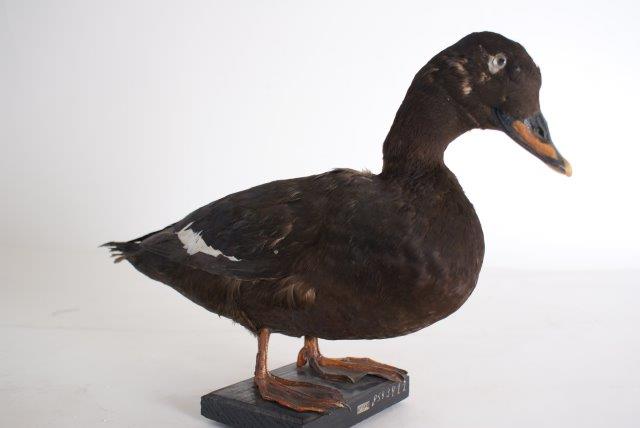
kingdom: Animalia
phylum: Chordata
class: Aves
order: Anseriformes
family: Anatidae
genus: Melanitta
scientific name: Melanitta fusca
